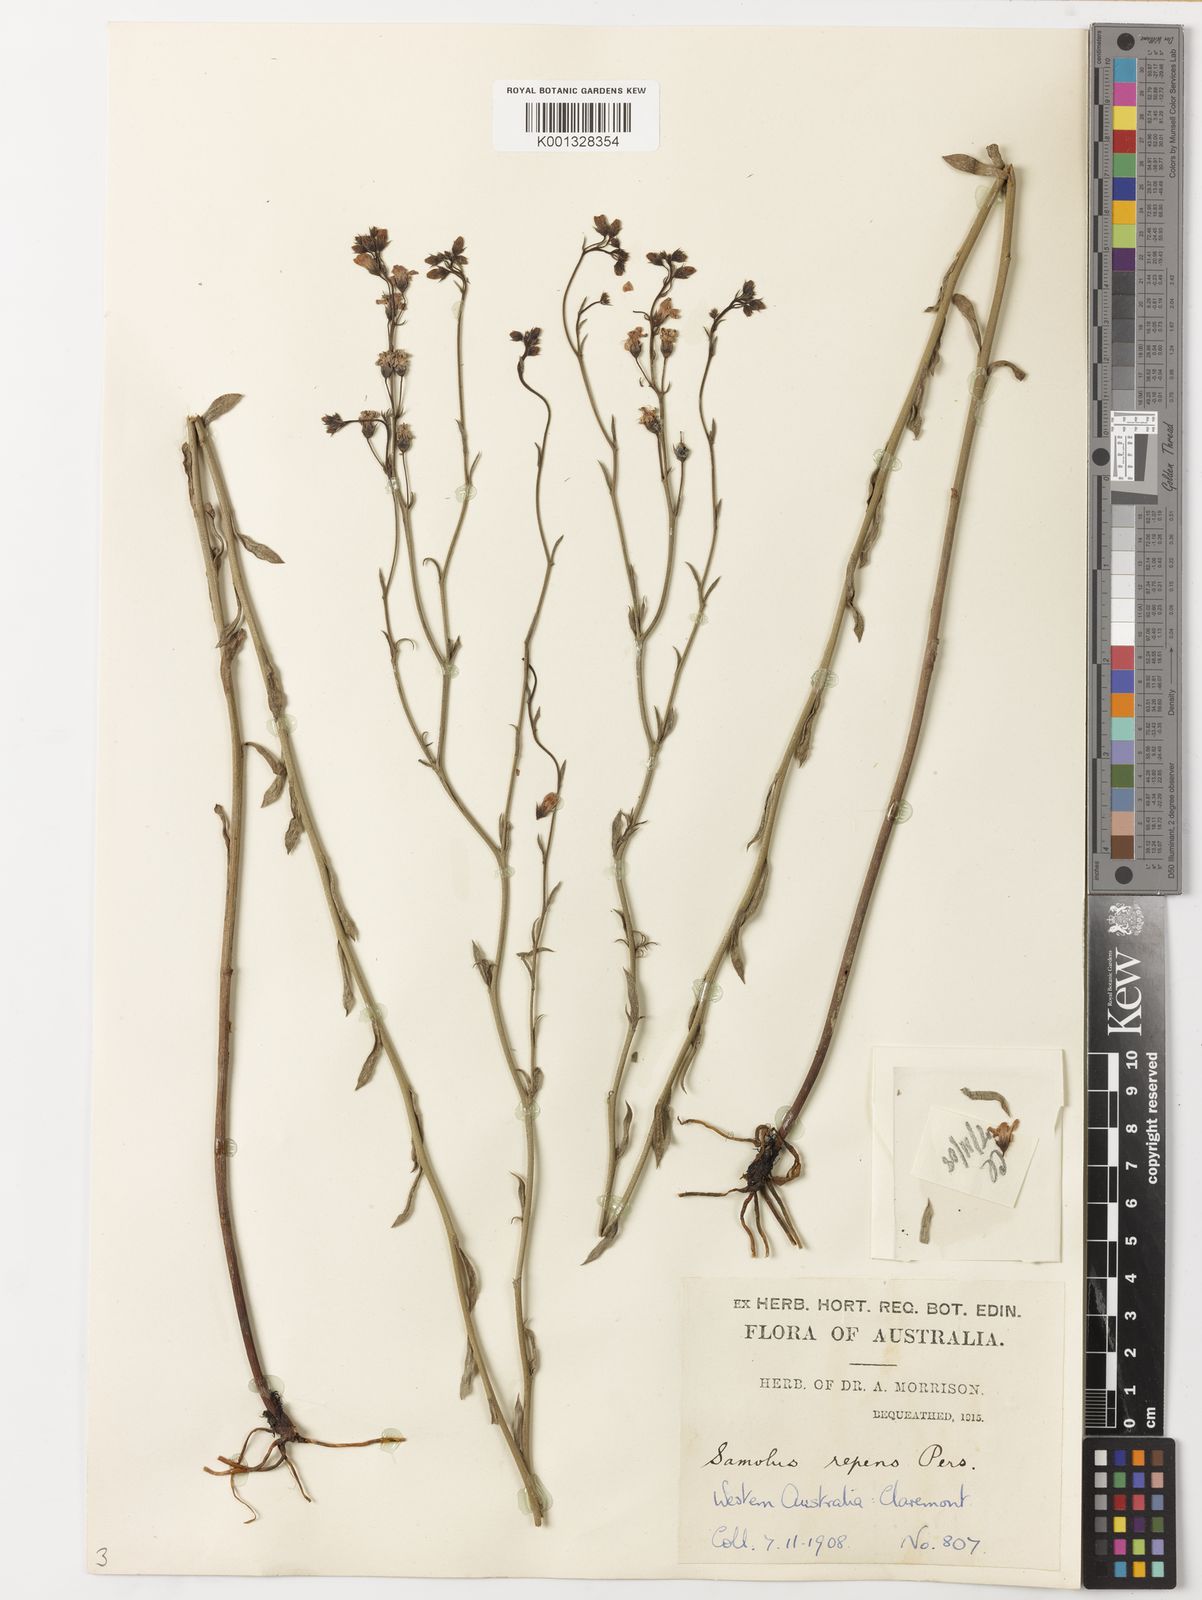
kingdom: Plantae
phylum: Tracheophyta
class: Magnoliopsida
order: Ericales
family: Primulaceae
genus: Samolus
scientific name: Samolus repens
